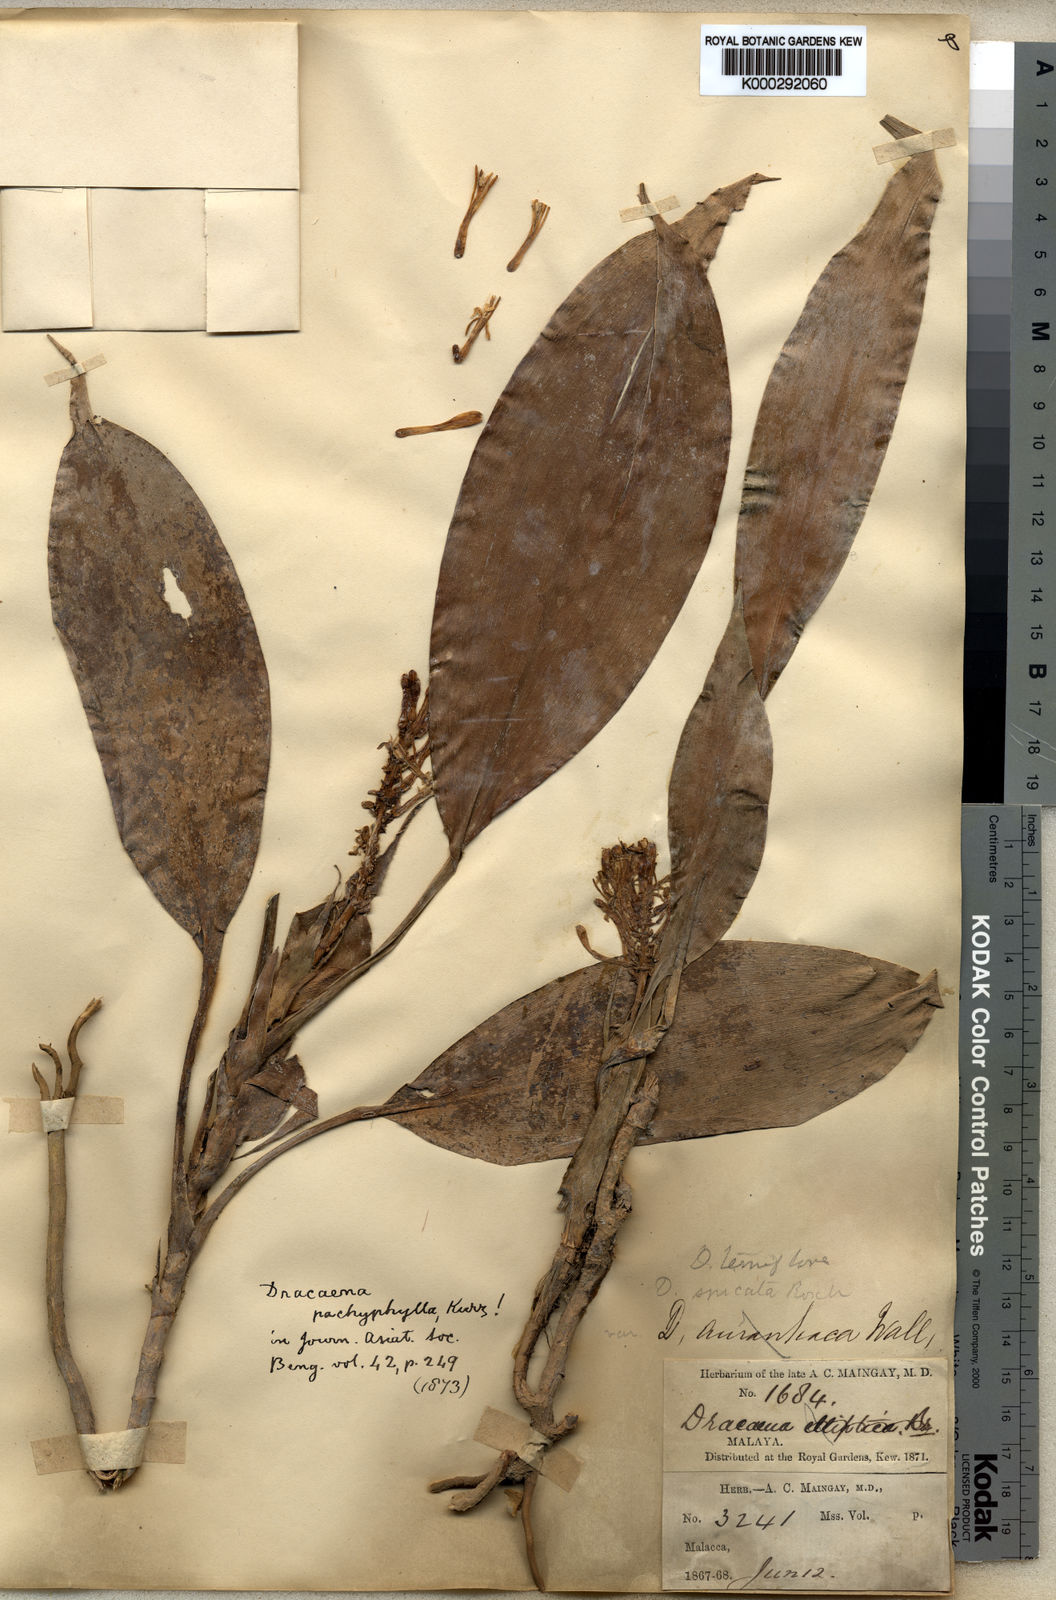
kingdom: Plantae
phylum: Tracheophyta
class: Liliopsida
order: Asparagales
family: Asparagaceae
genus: Dracaena
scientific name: Dracaena chiniana
